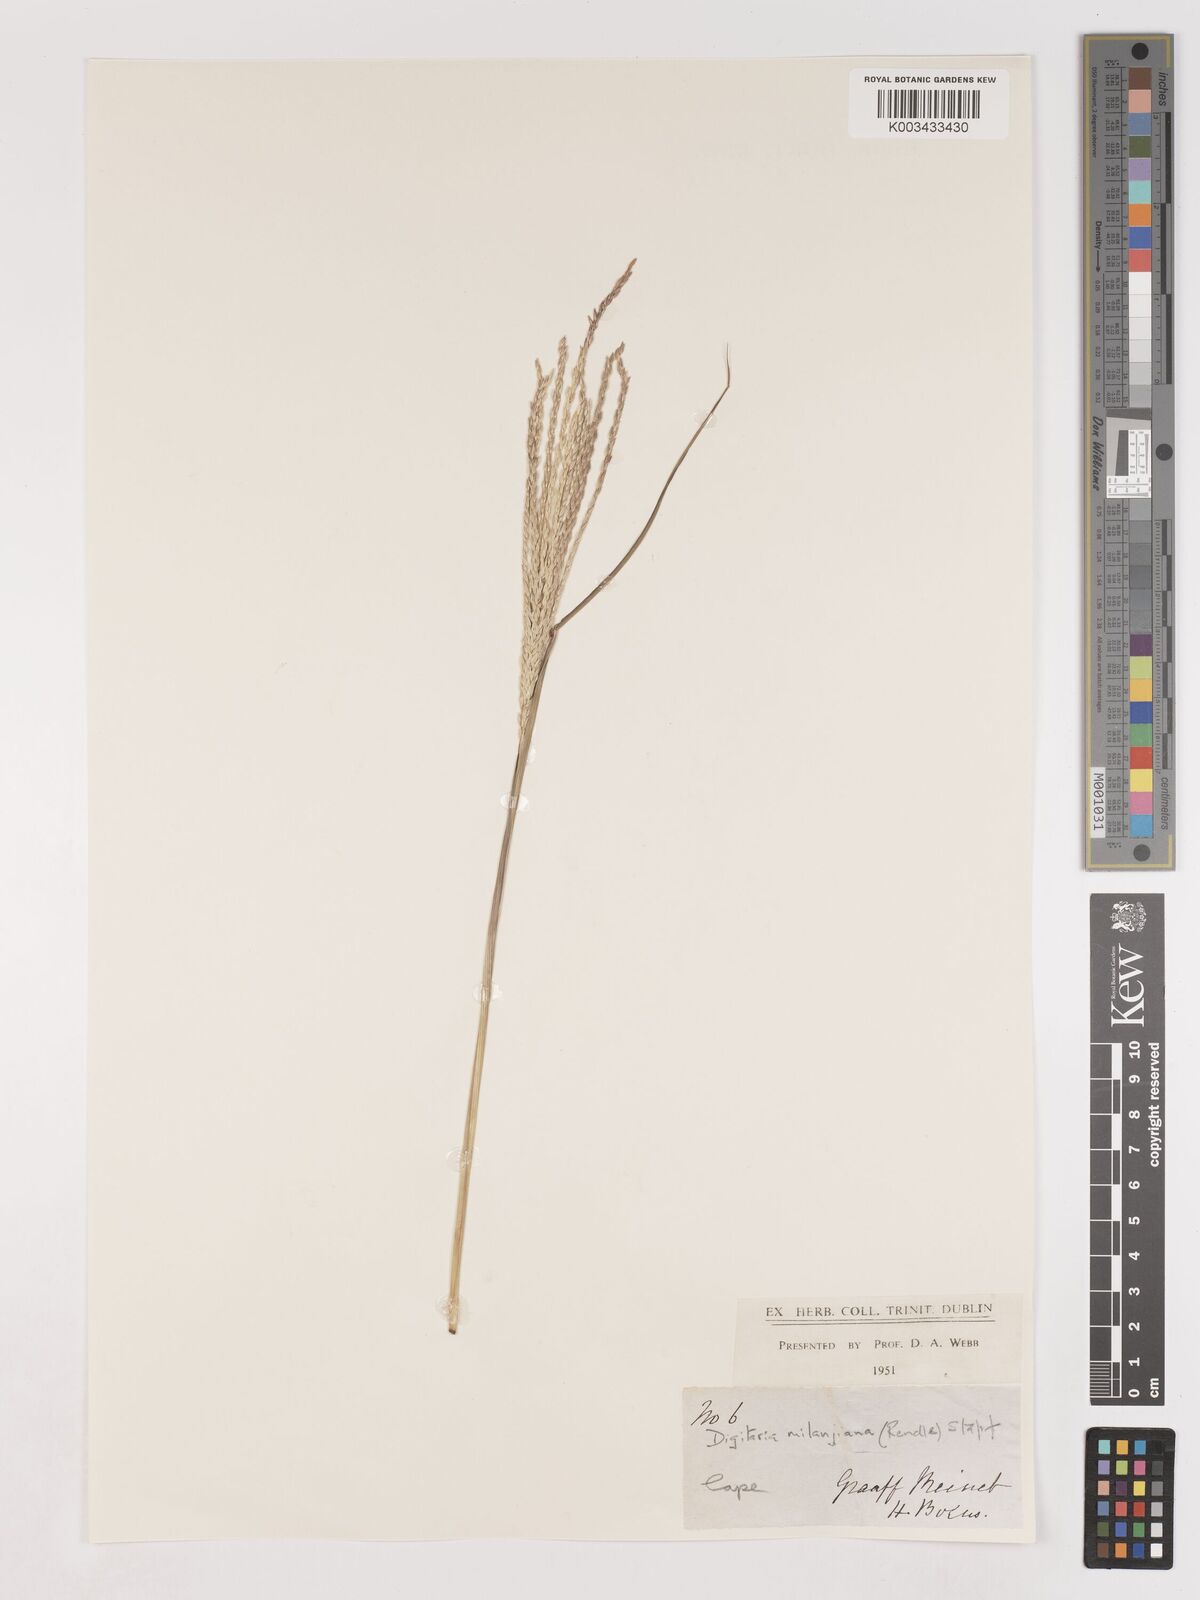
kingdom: Plantae
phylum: Tracheophyta
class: Liliopsida
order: Poales
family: Poaceae
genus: Digitaria
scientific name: Digitaria eriantha
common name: Digitgrass
